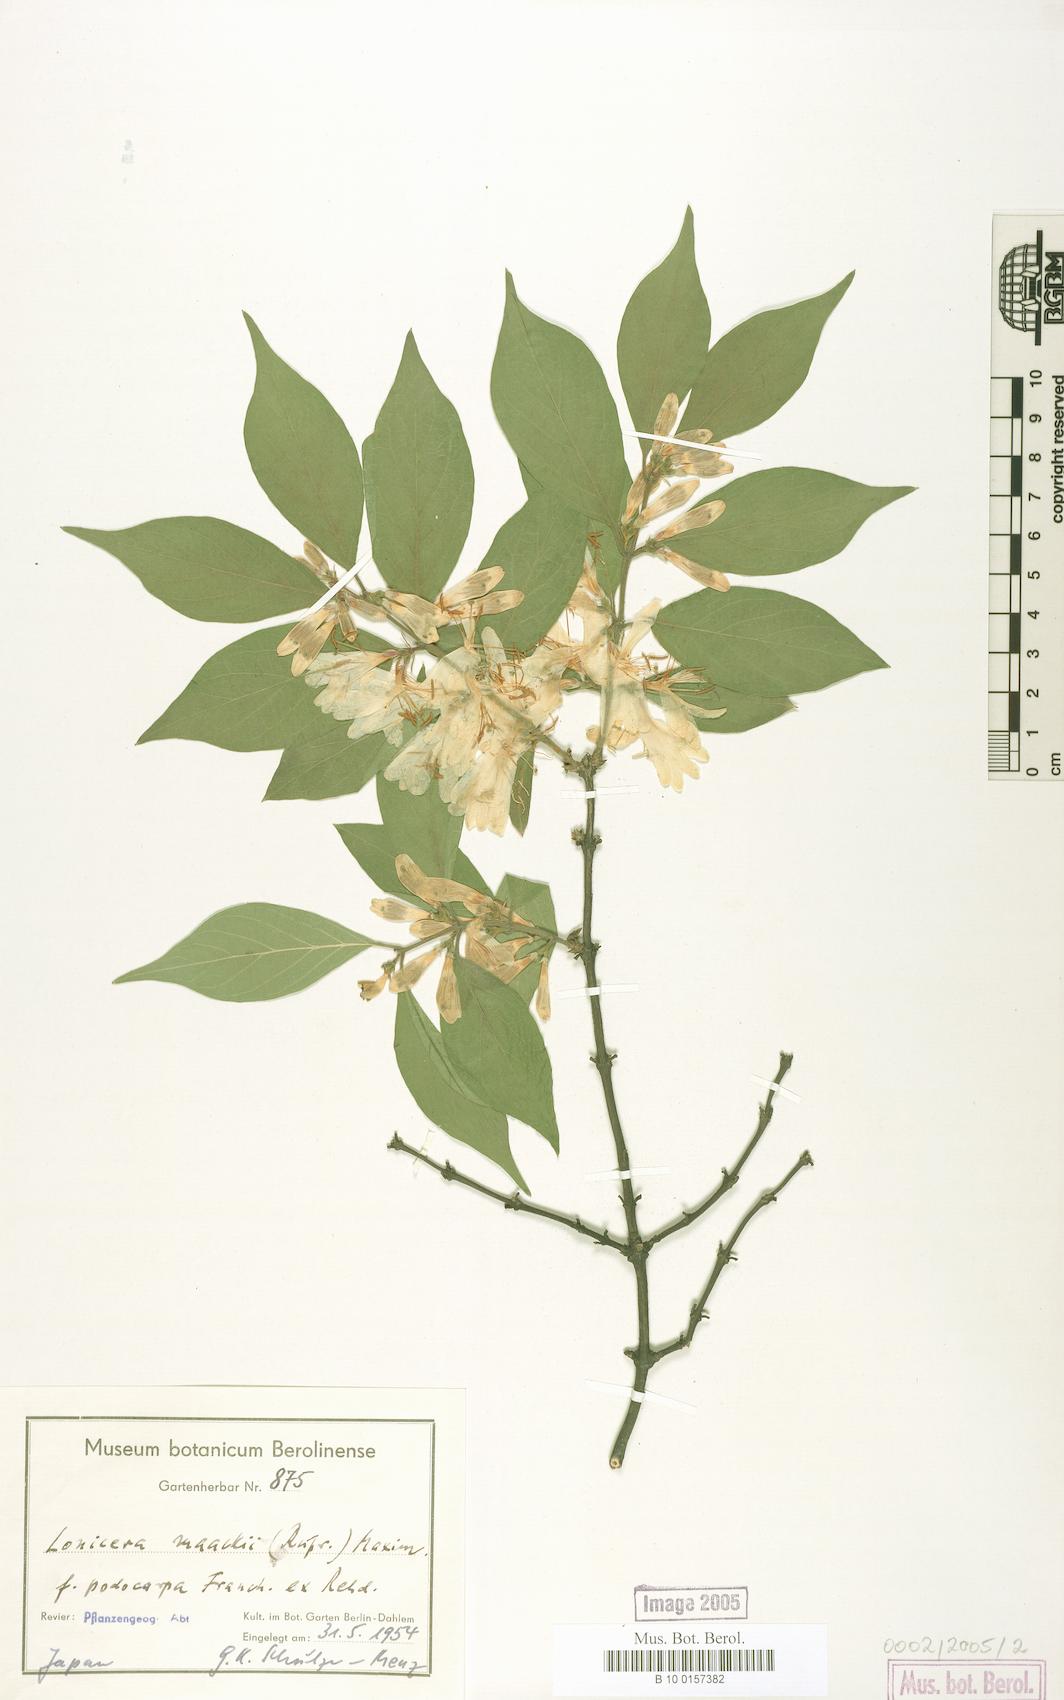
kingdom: Plantae
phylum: Tracheophyta
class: Magnoliopsida
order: Dipsacales
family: Caprifoliaceae
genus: Lonicera
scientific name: Lonicera maackii
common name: Amur honeysuckle
